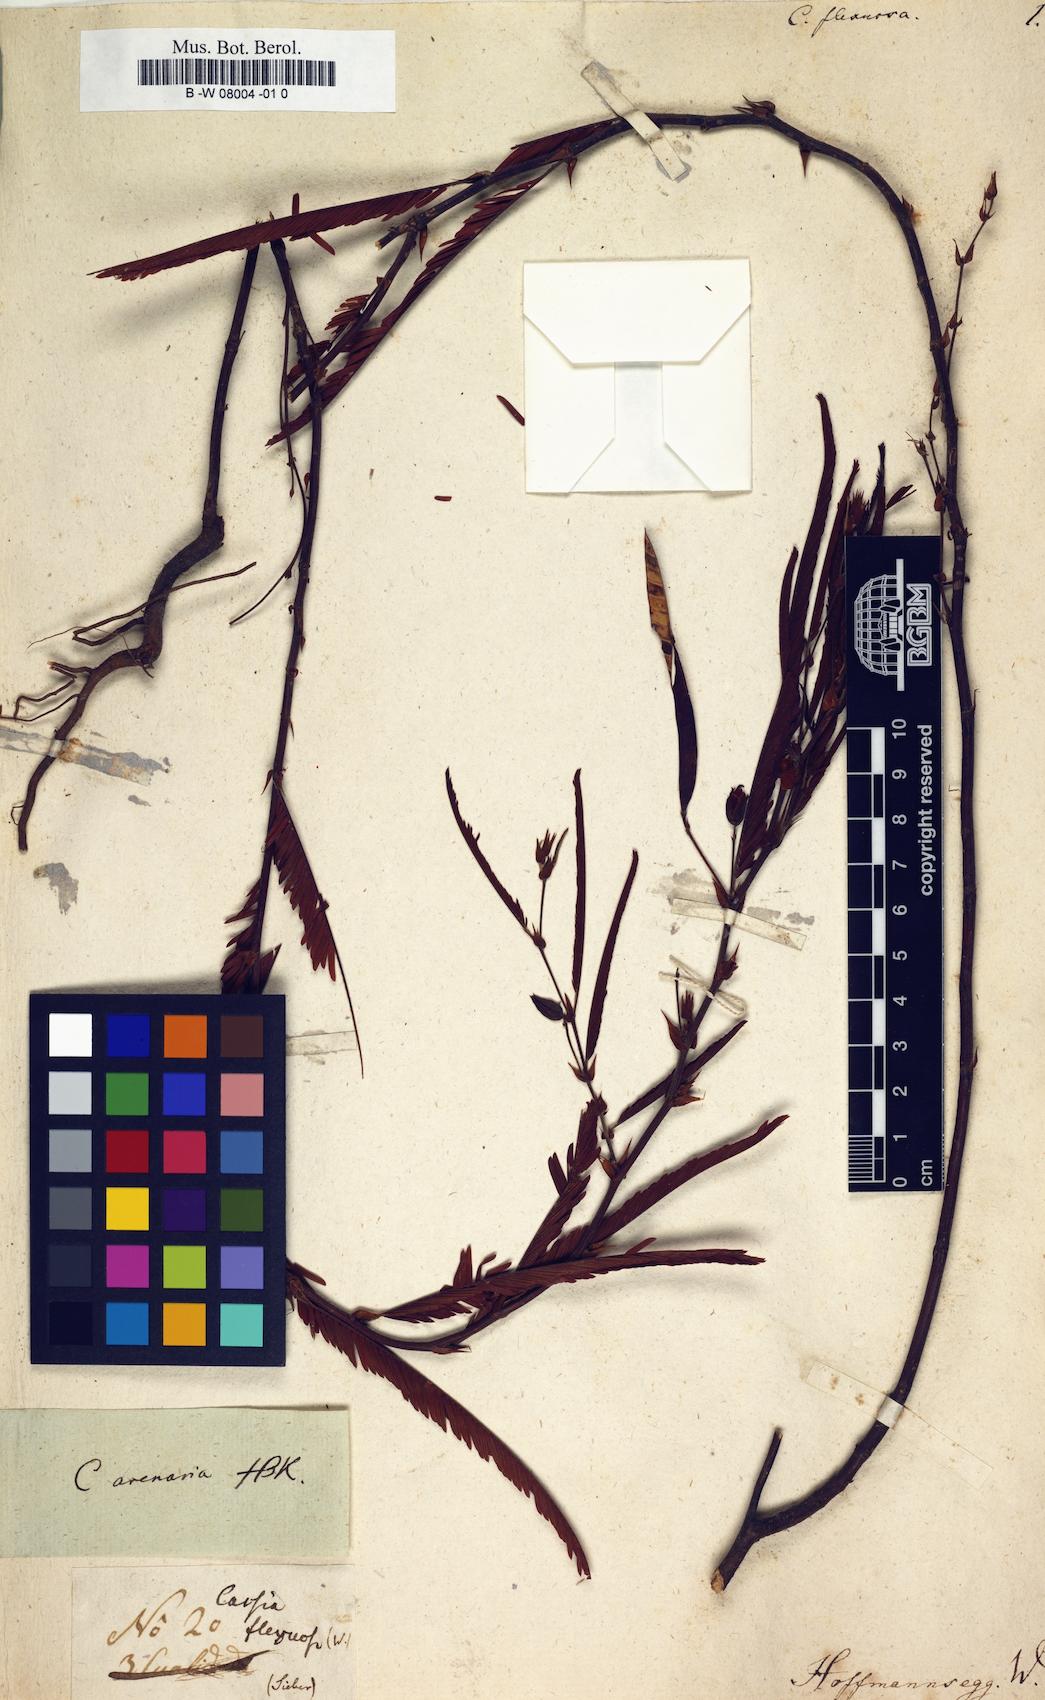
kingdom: Plantae
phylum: Tracheophyta
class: Magnoliopsida
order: Fabales
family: Fabaceae
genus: Chamaecrista
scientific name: Chamaecrista
